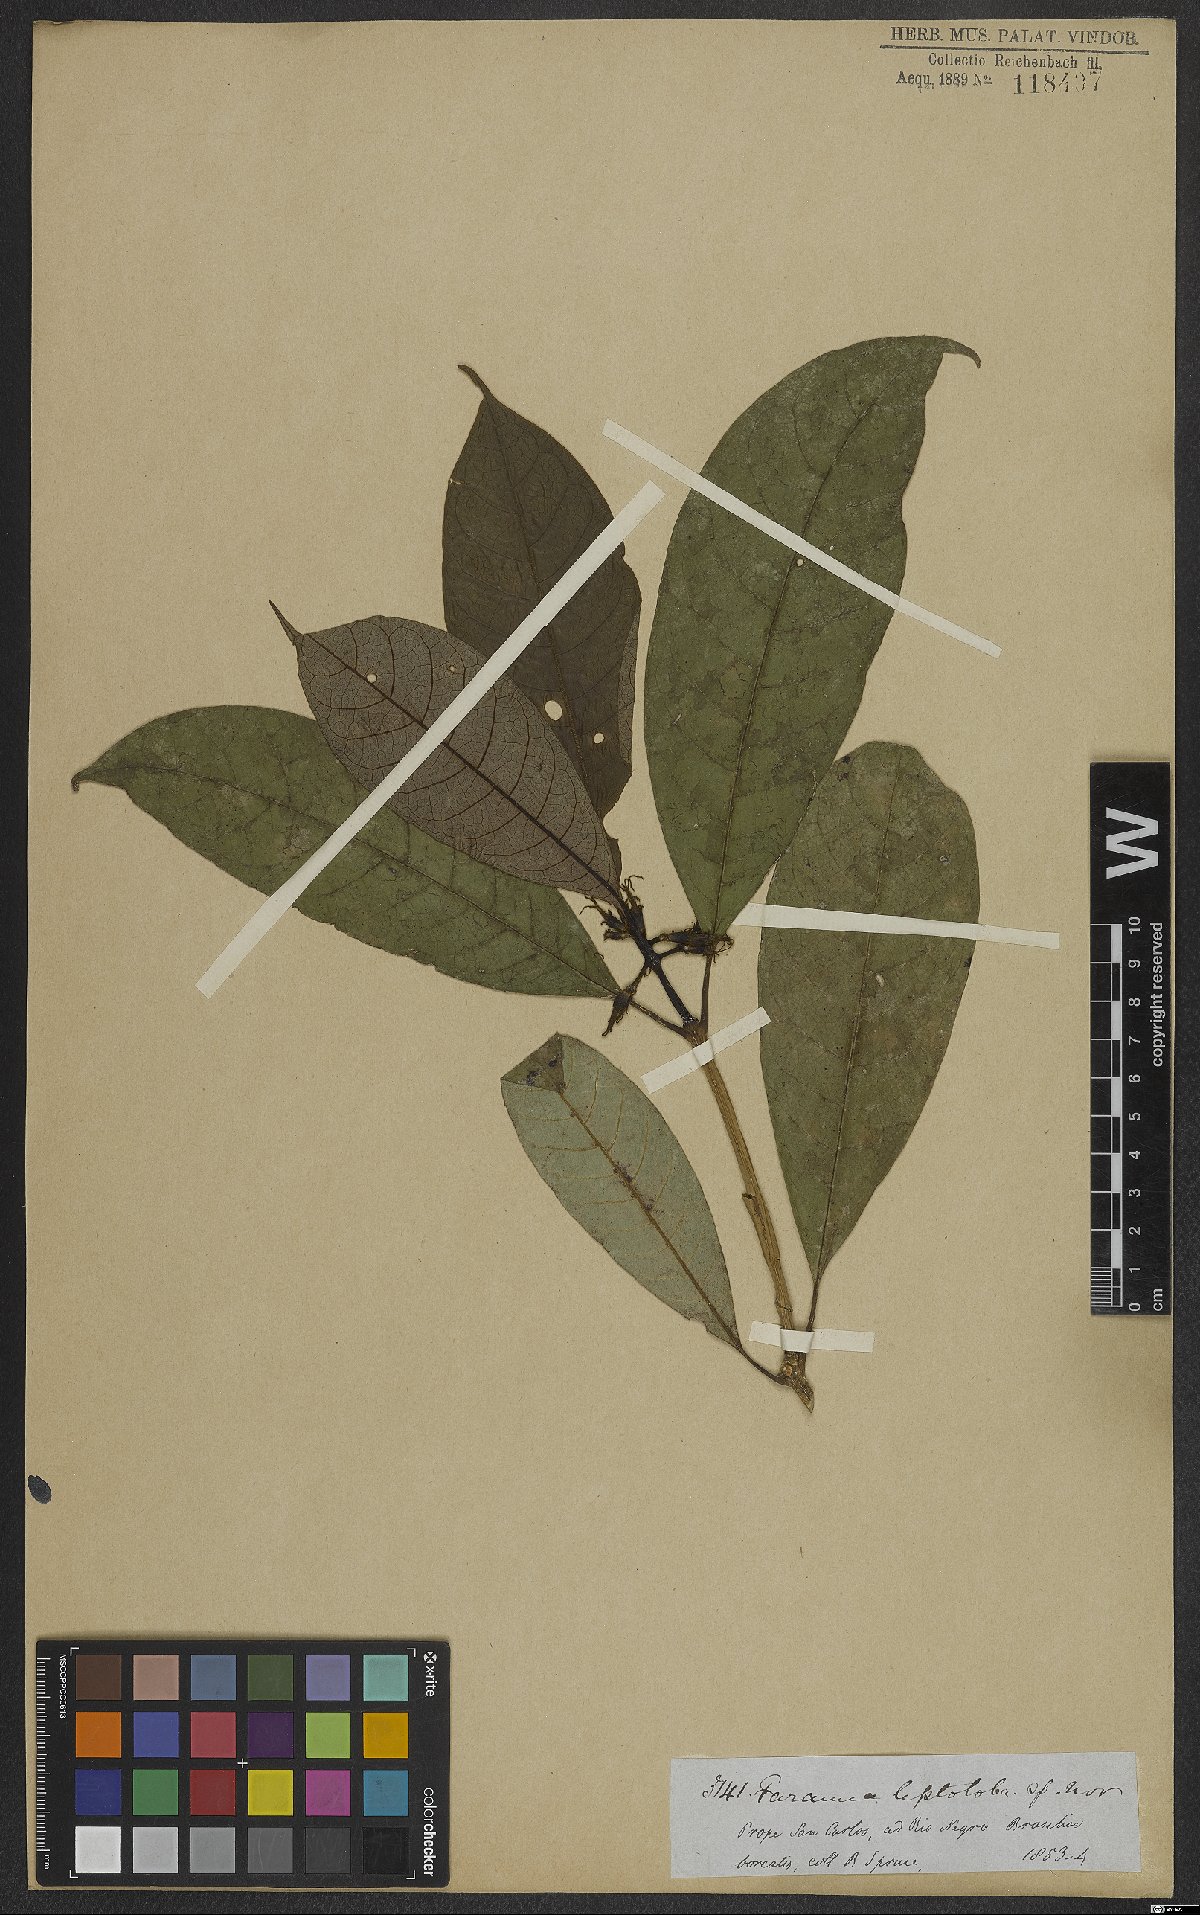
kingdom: Plantae
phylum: Tracheophyta
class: Magnoliopsida
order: Gentianales
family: Rubiaceae
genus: Coussarea
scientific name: Coussarea leptoloba
